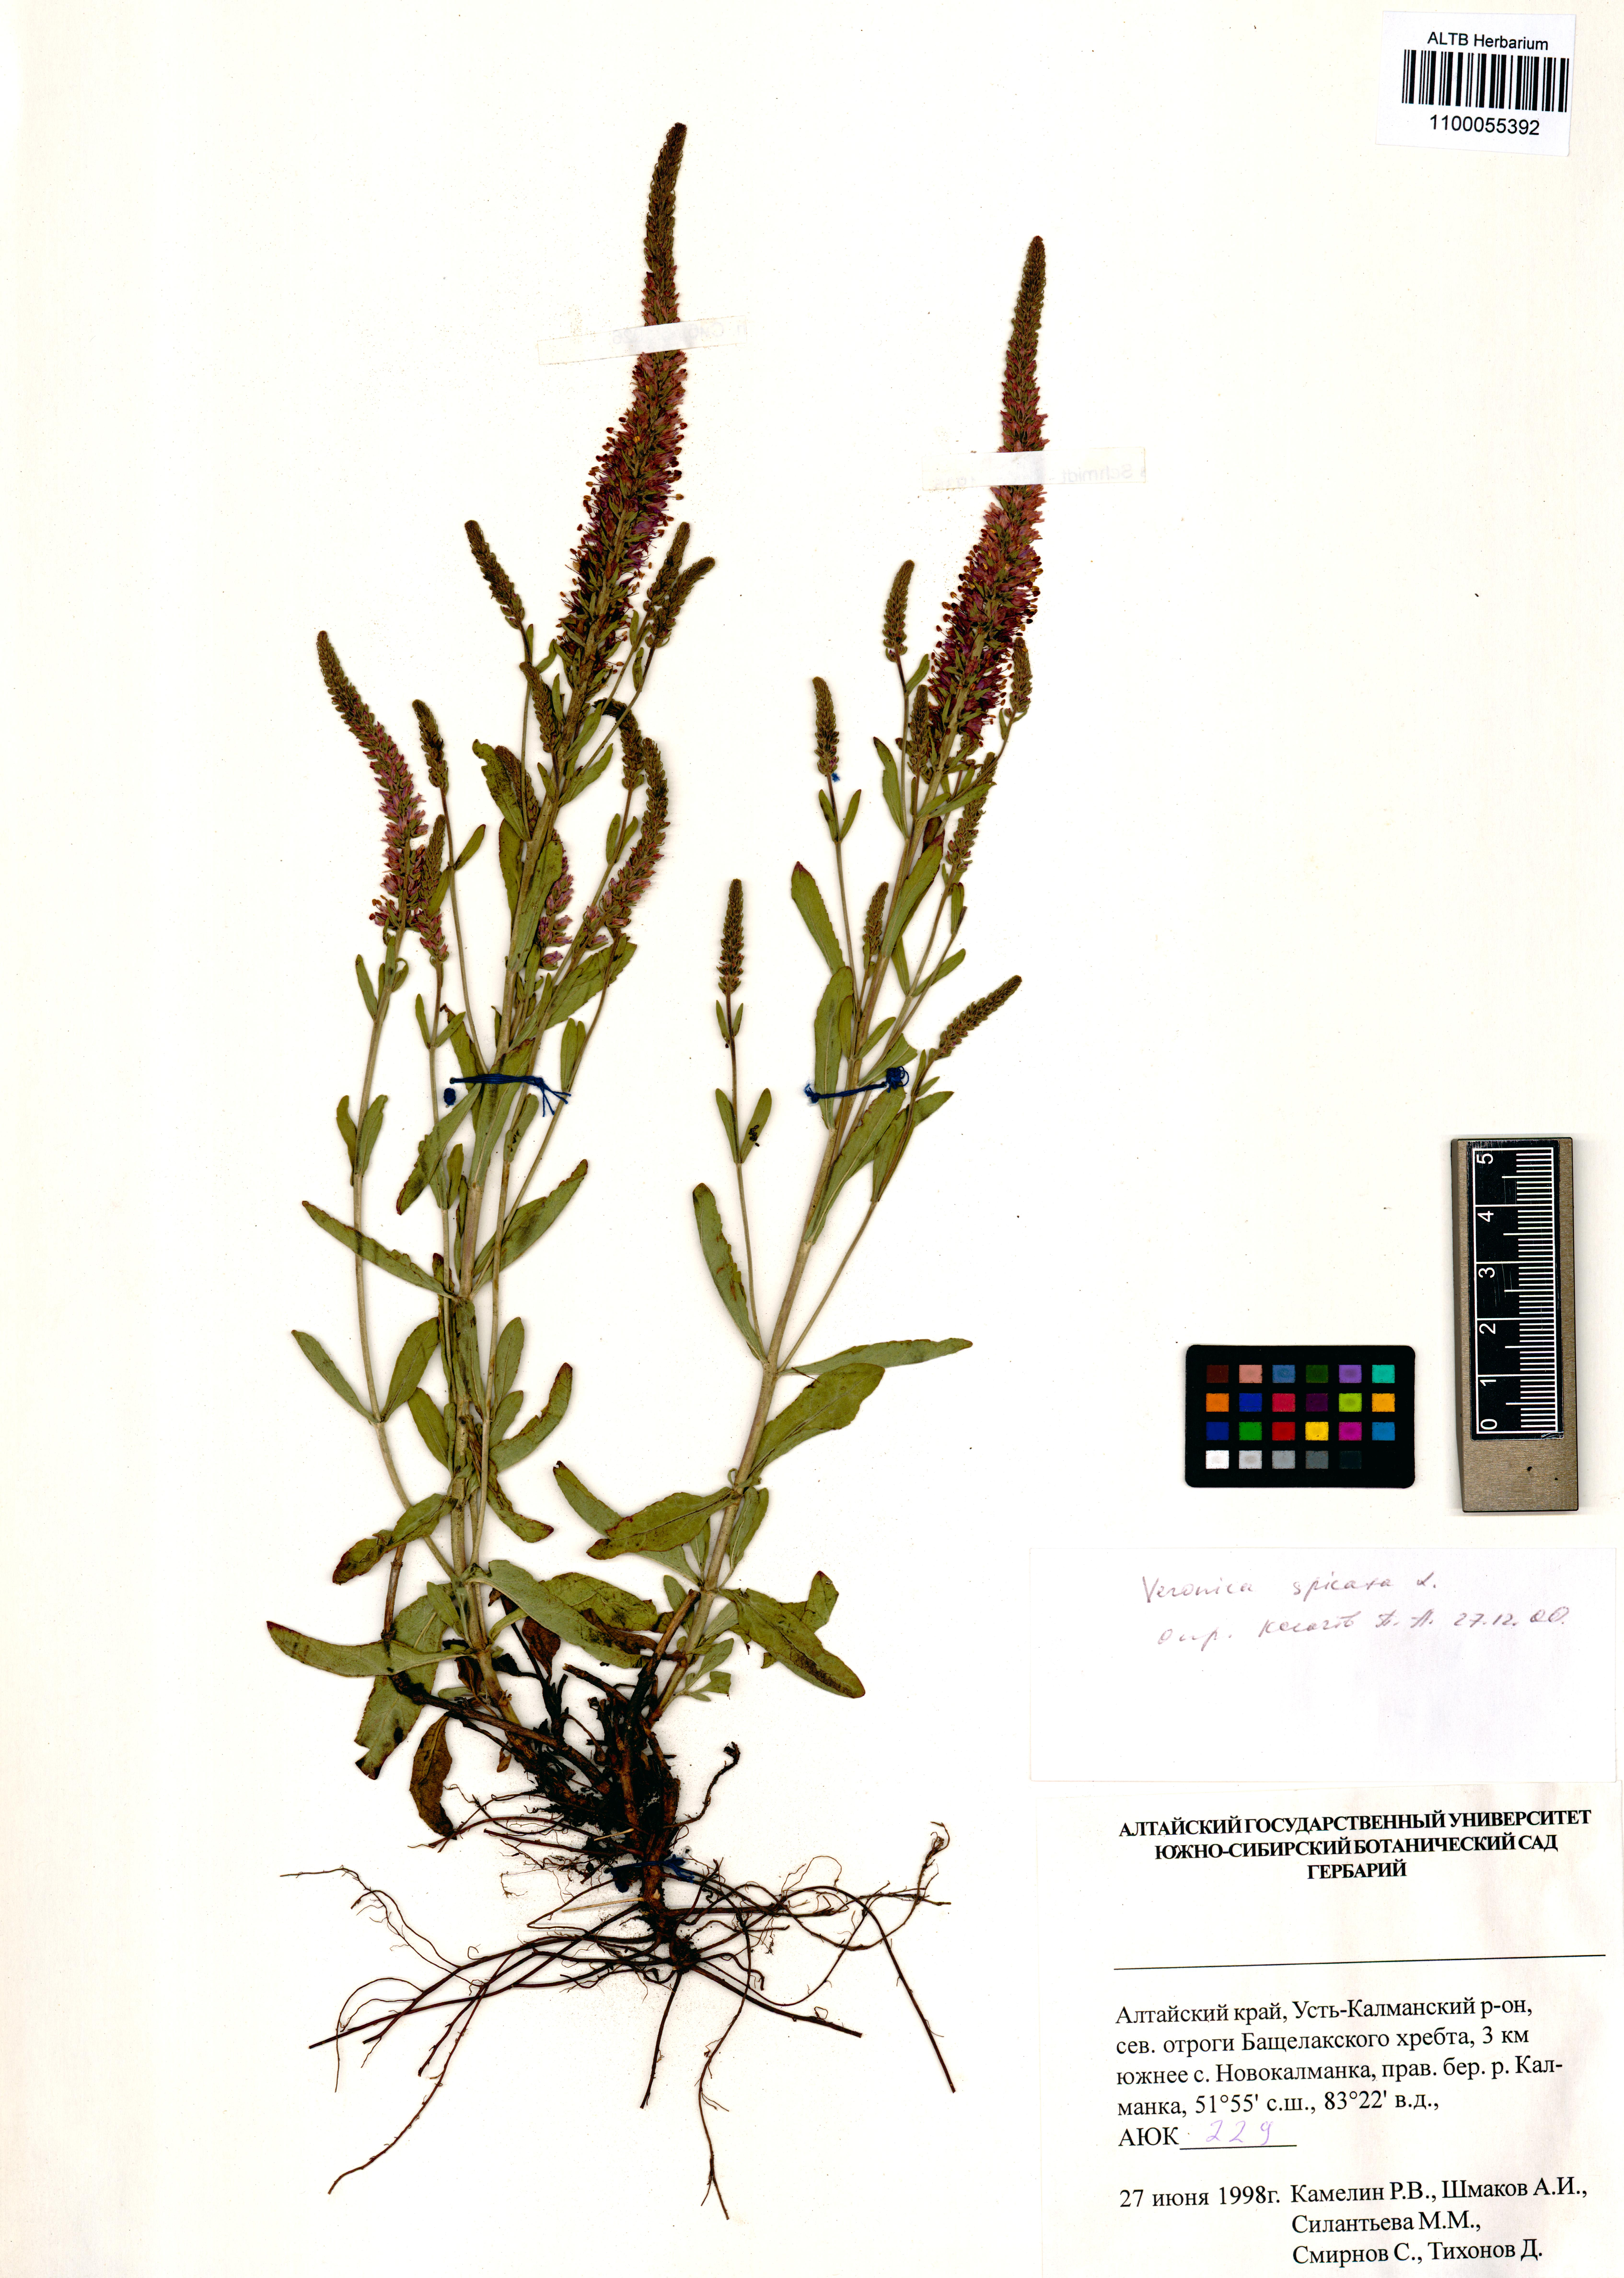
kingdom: Plantae
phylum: Tracheophyta
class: Magnoliopsida
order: Lamiales
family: Plantaginaceae
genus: Veronica
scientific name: Veronica spicata
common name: Spiked speedwell
